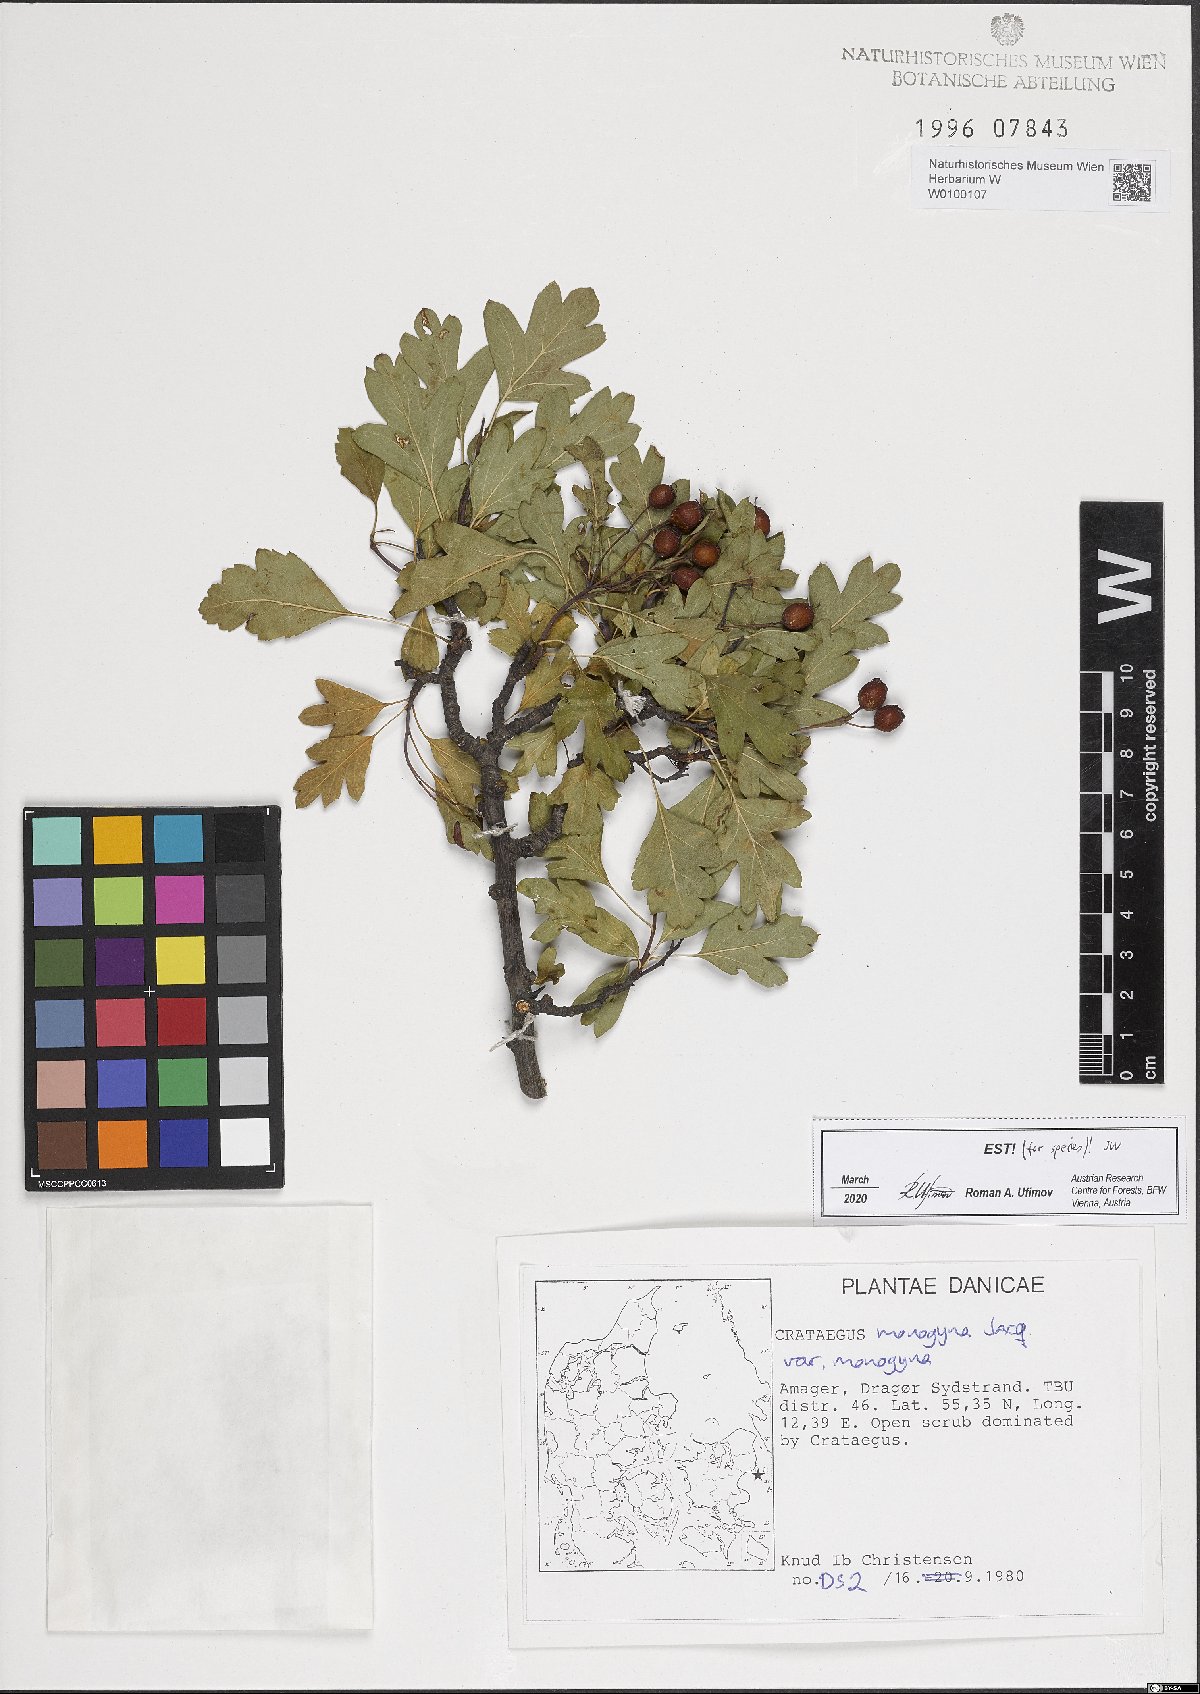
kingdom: Plantae
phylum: Tracheophyta
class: Magnoliopsida
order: Rosales
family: Rosaceae
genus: Crataegus
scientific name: Crataegus monogyna
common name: Hawthorn
